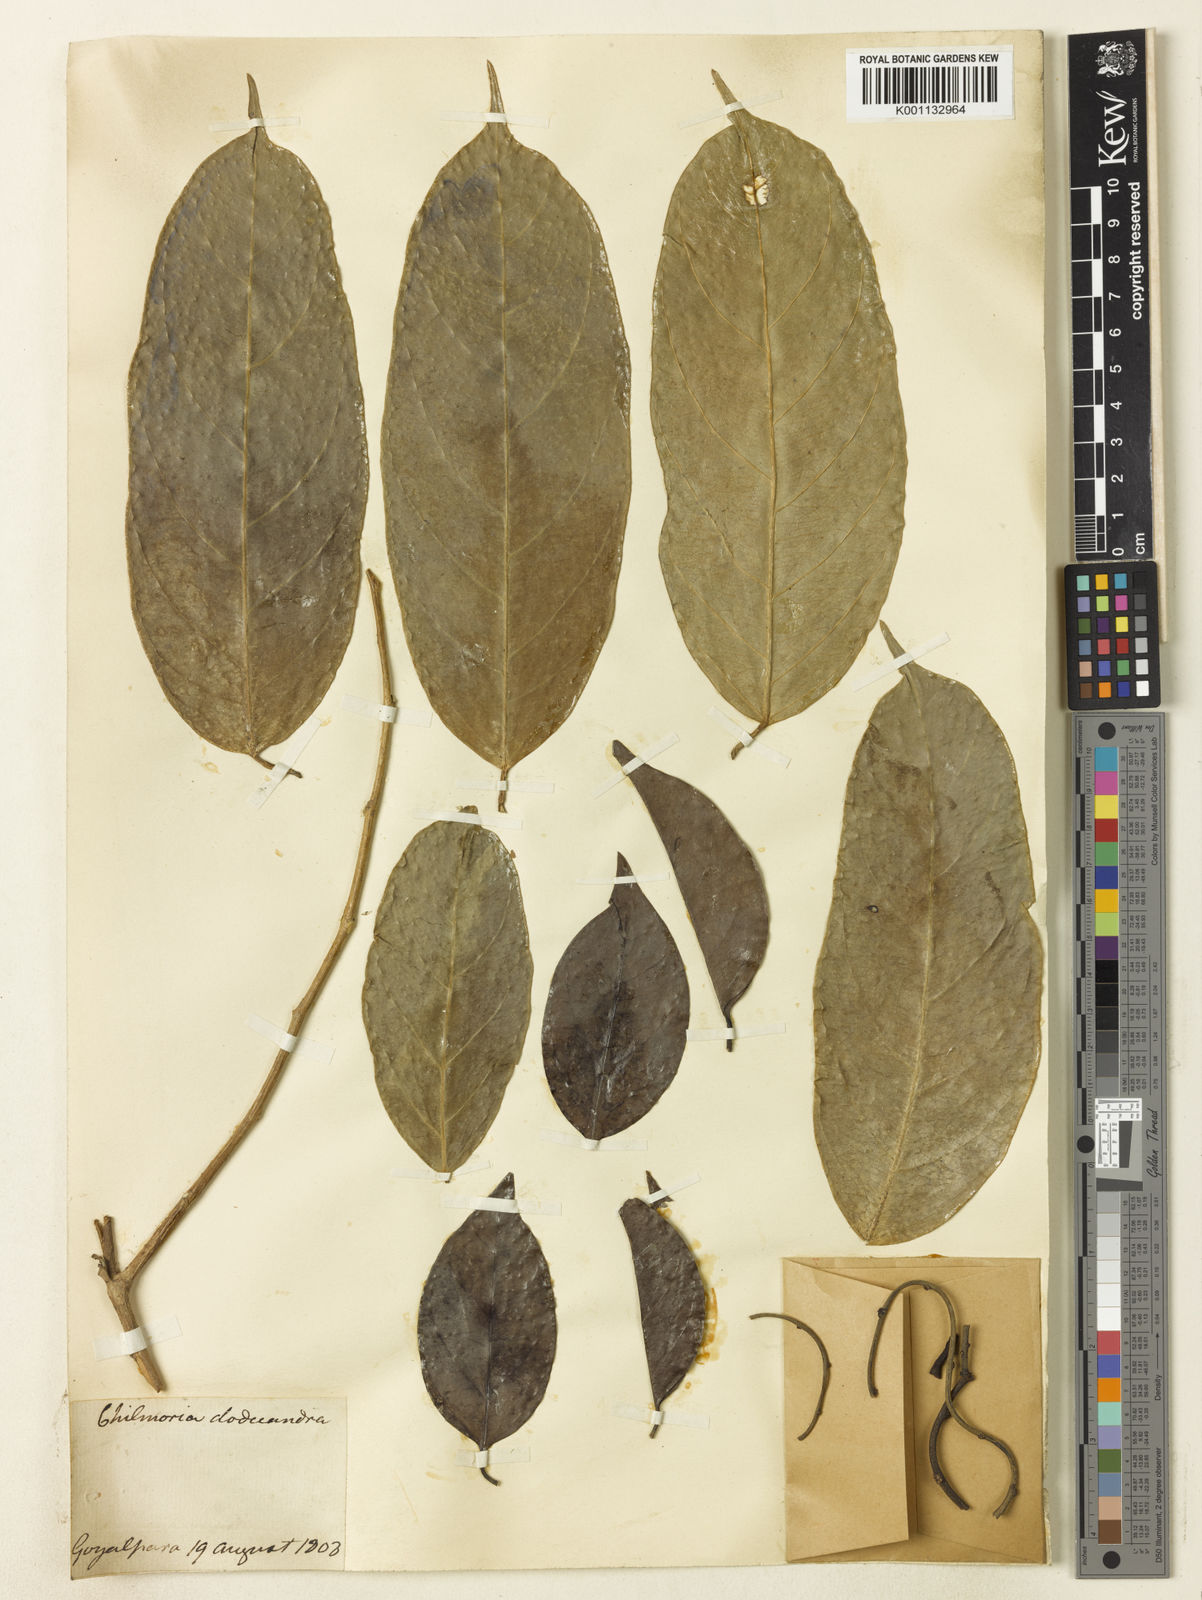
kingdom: Plantae
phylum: Tracheophyta
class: Magnoliopsida
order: Malpighiales
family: Achariaceae
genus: Gynocardia
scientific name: Gynocardia odorata
